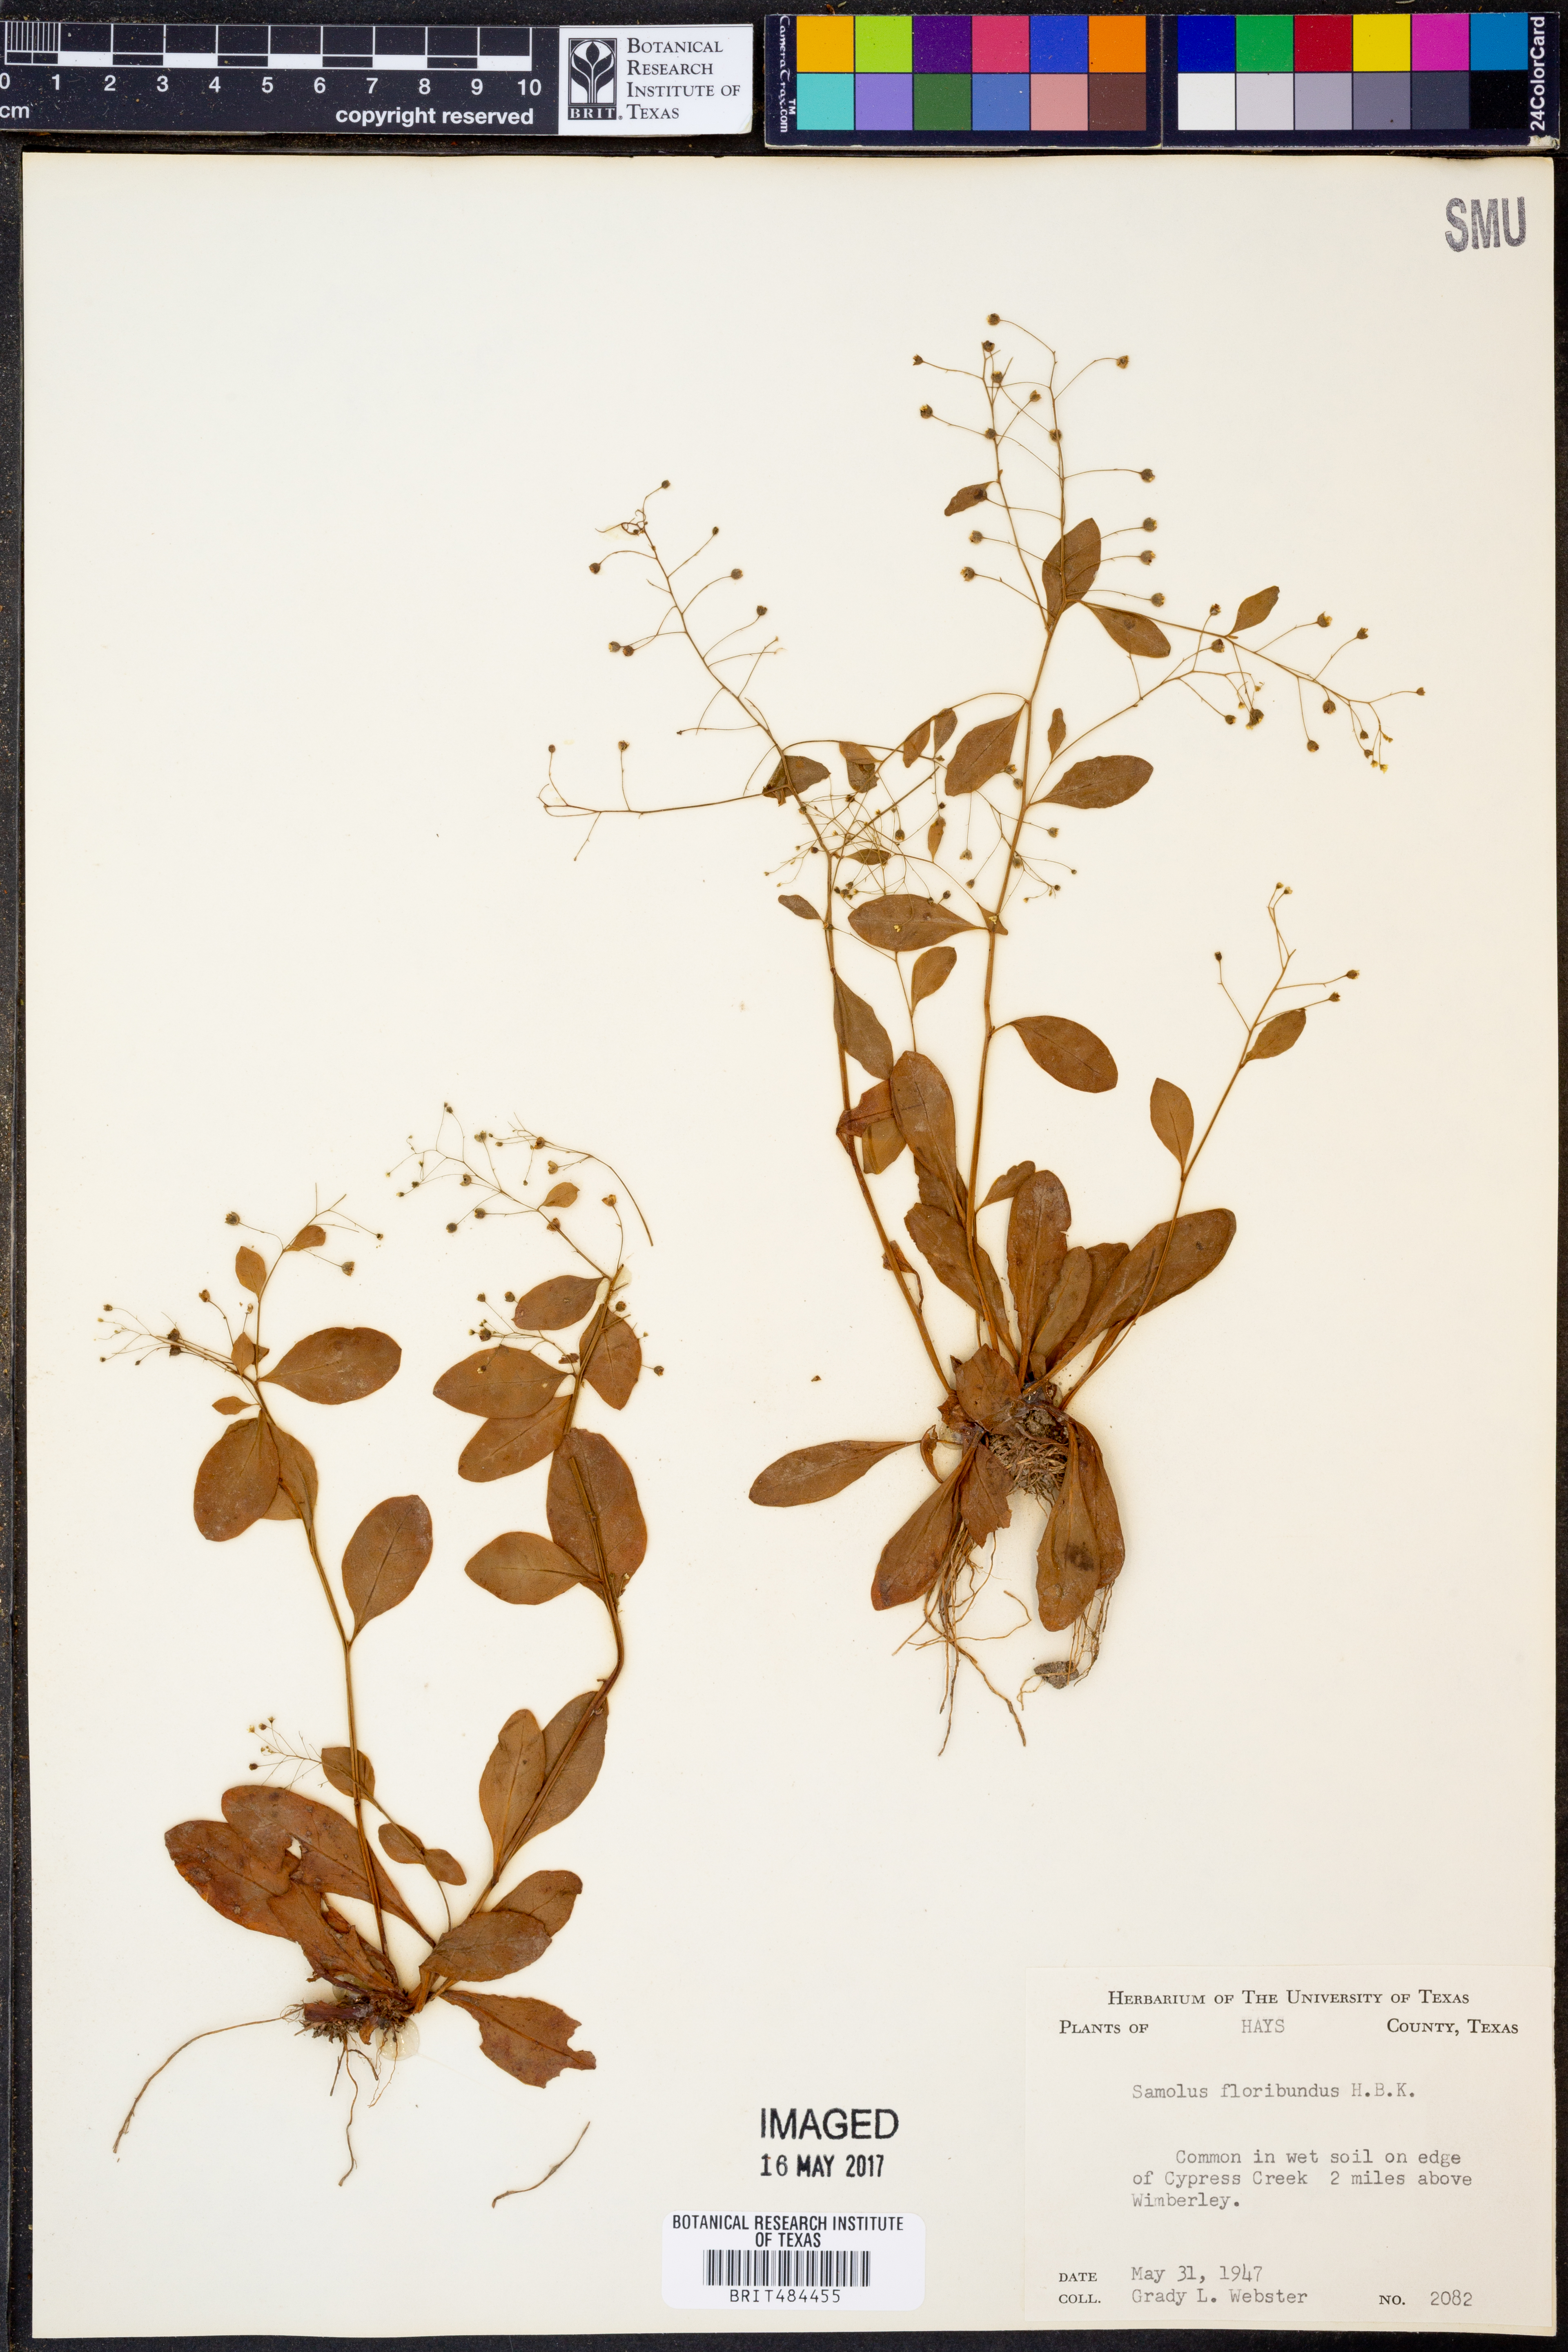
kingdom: Plantae
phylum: Tracheophyta
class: Magnoliopsida
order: Ericales
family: Primulaceae
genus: Samolus
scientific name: Samolus parviflorus
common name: False water pimpernel
